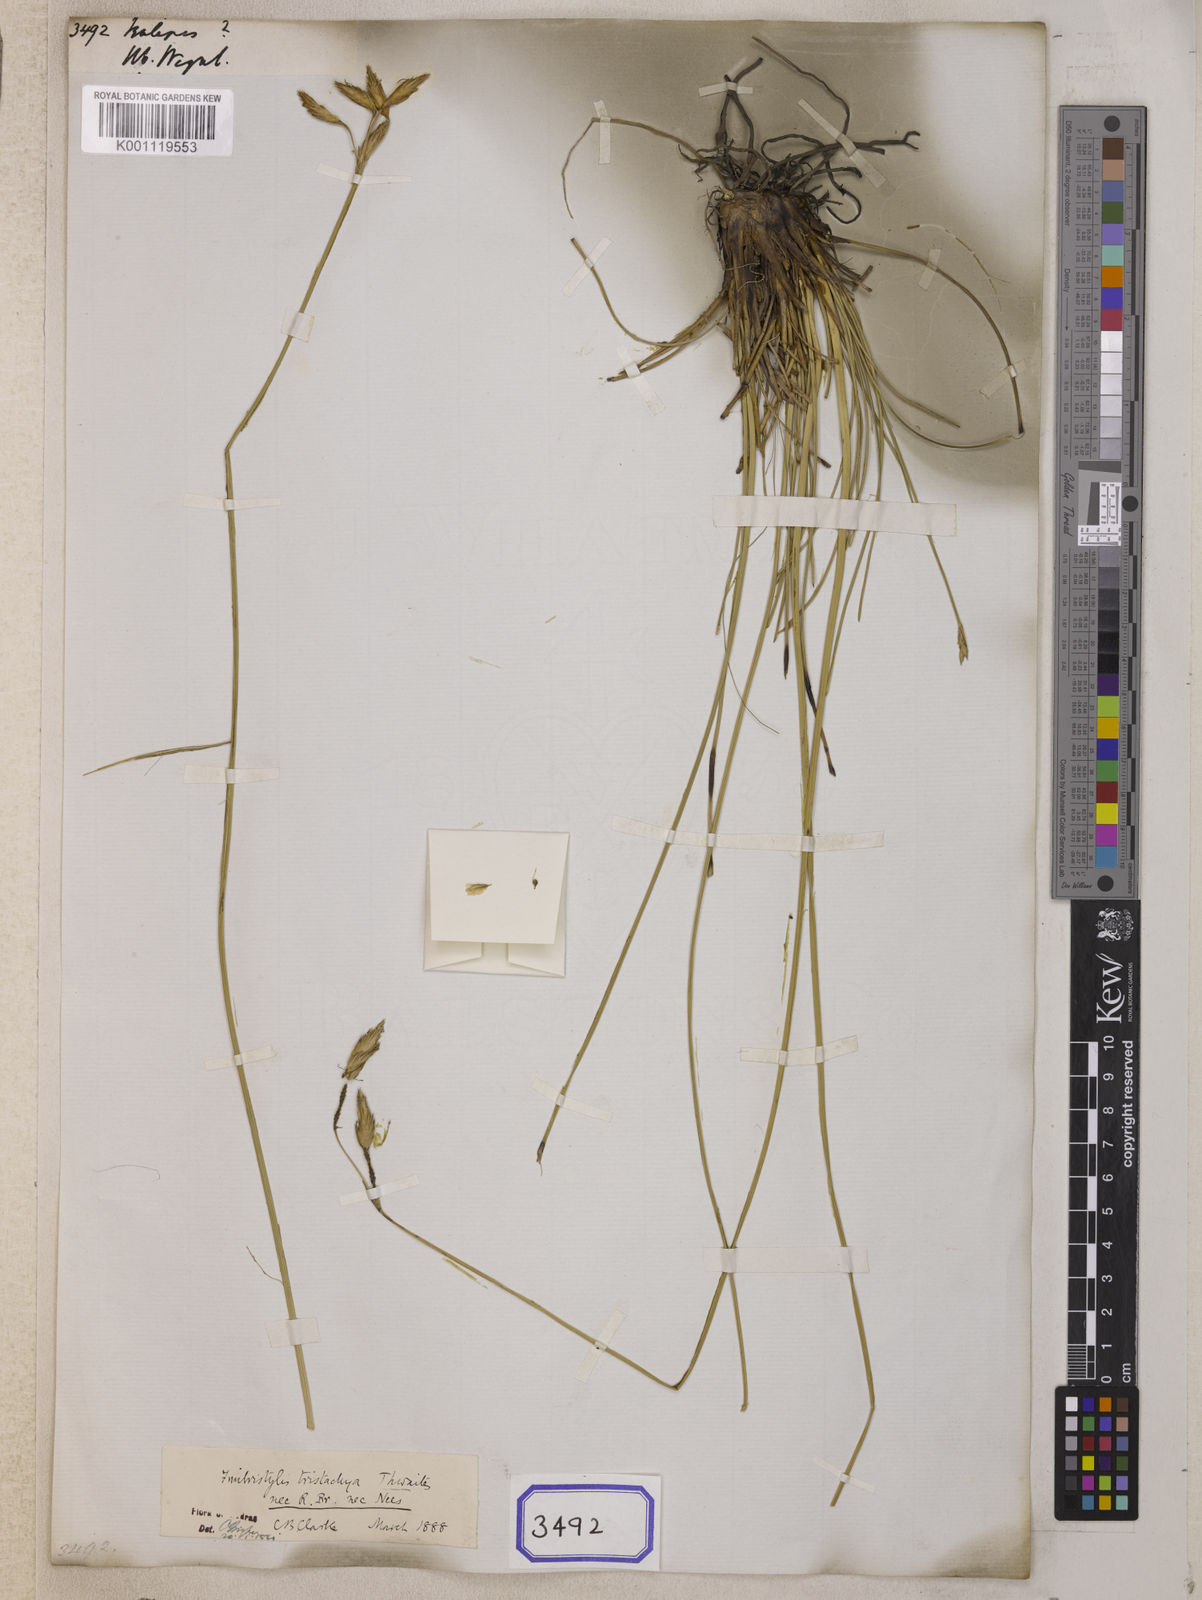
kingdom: Plantae
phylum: Tracheophyta
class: Liliopsida
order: Poales
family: Cyperaceae
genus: Isolepis
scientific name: Isolepis
